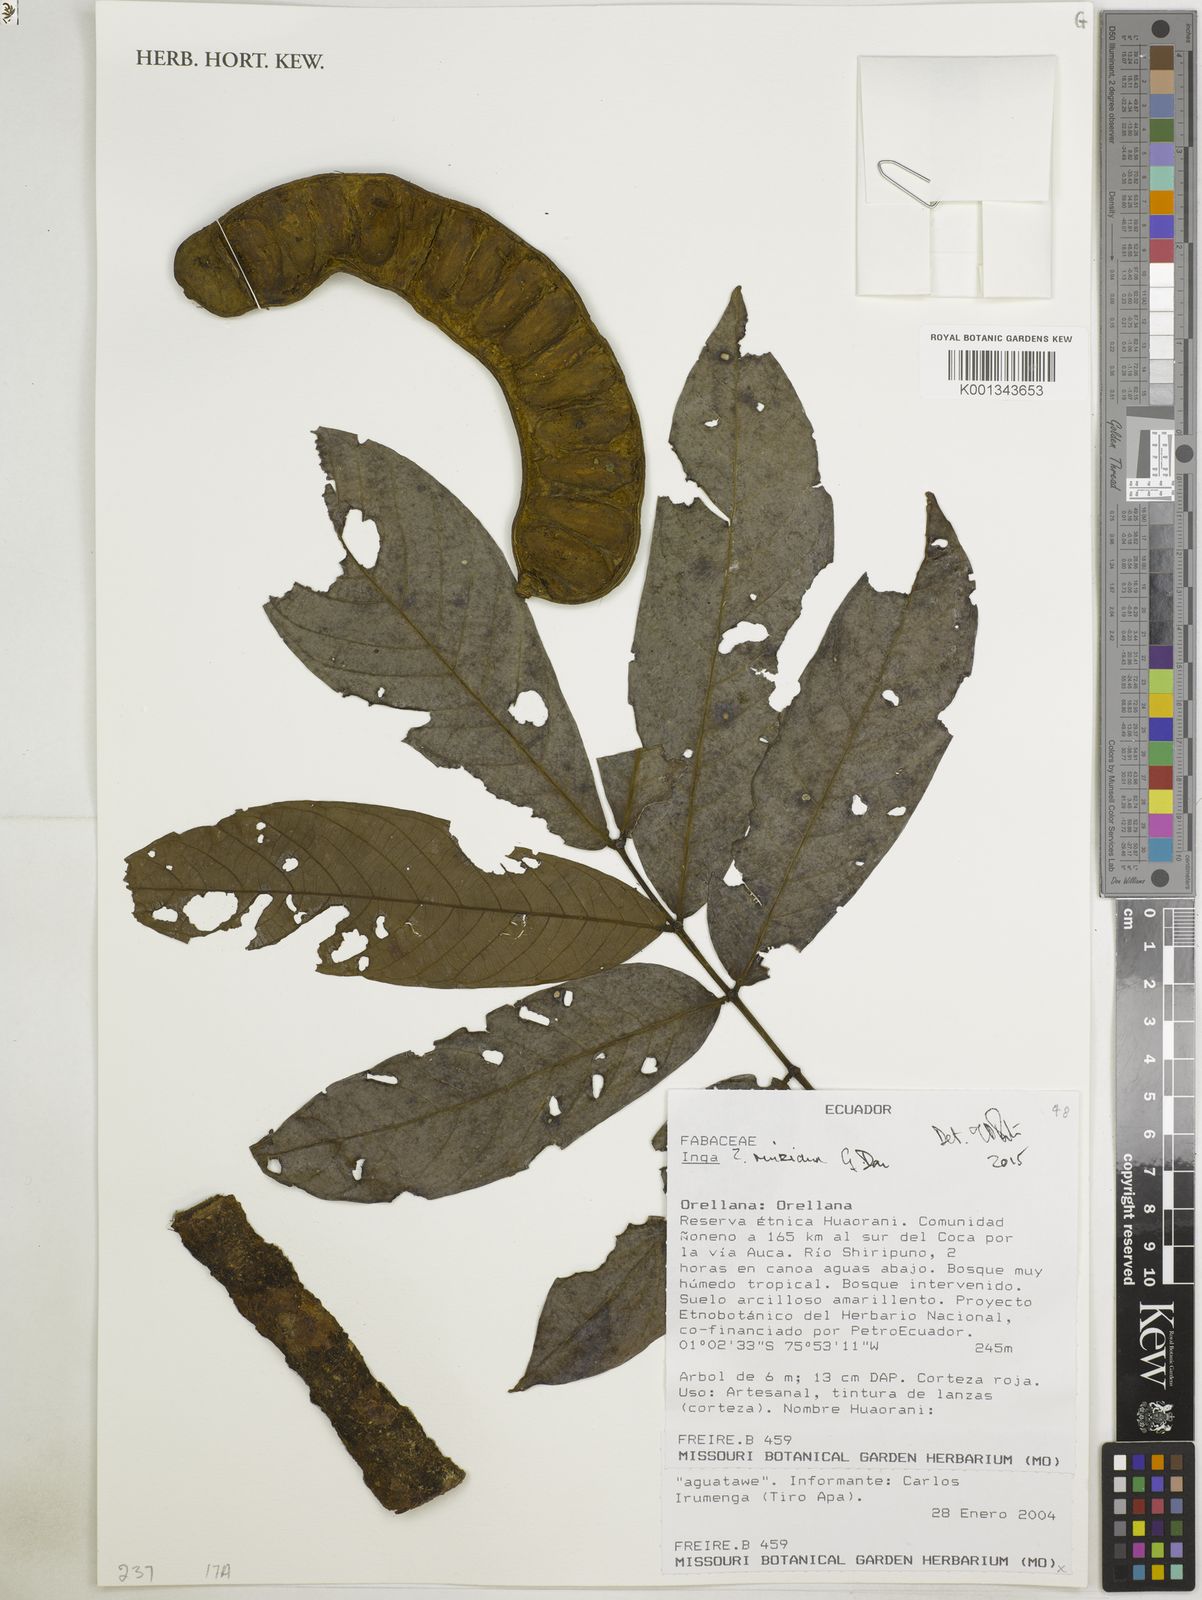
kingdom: Plantae
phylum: Tracheophyta
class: Magnoliopsida
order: Fabales
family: Fabaceae
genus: Inga
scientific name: Inga ruiziana
